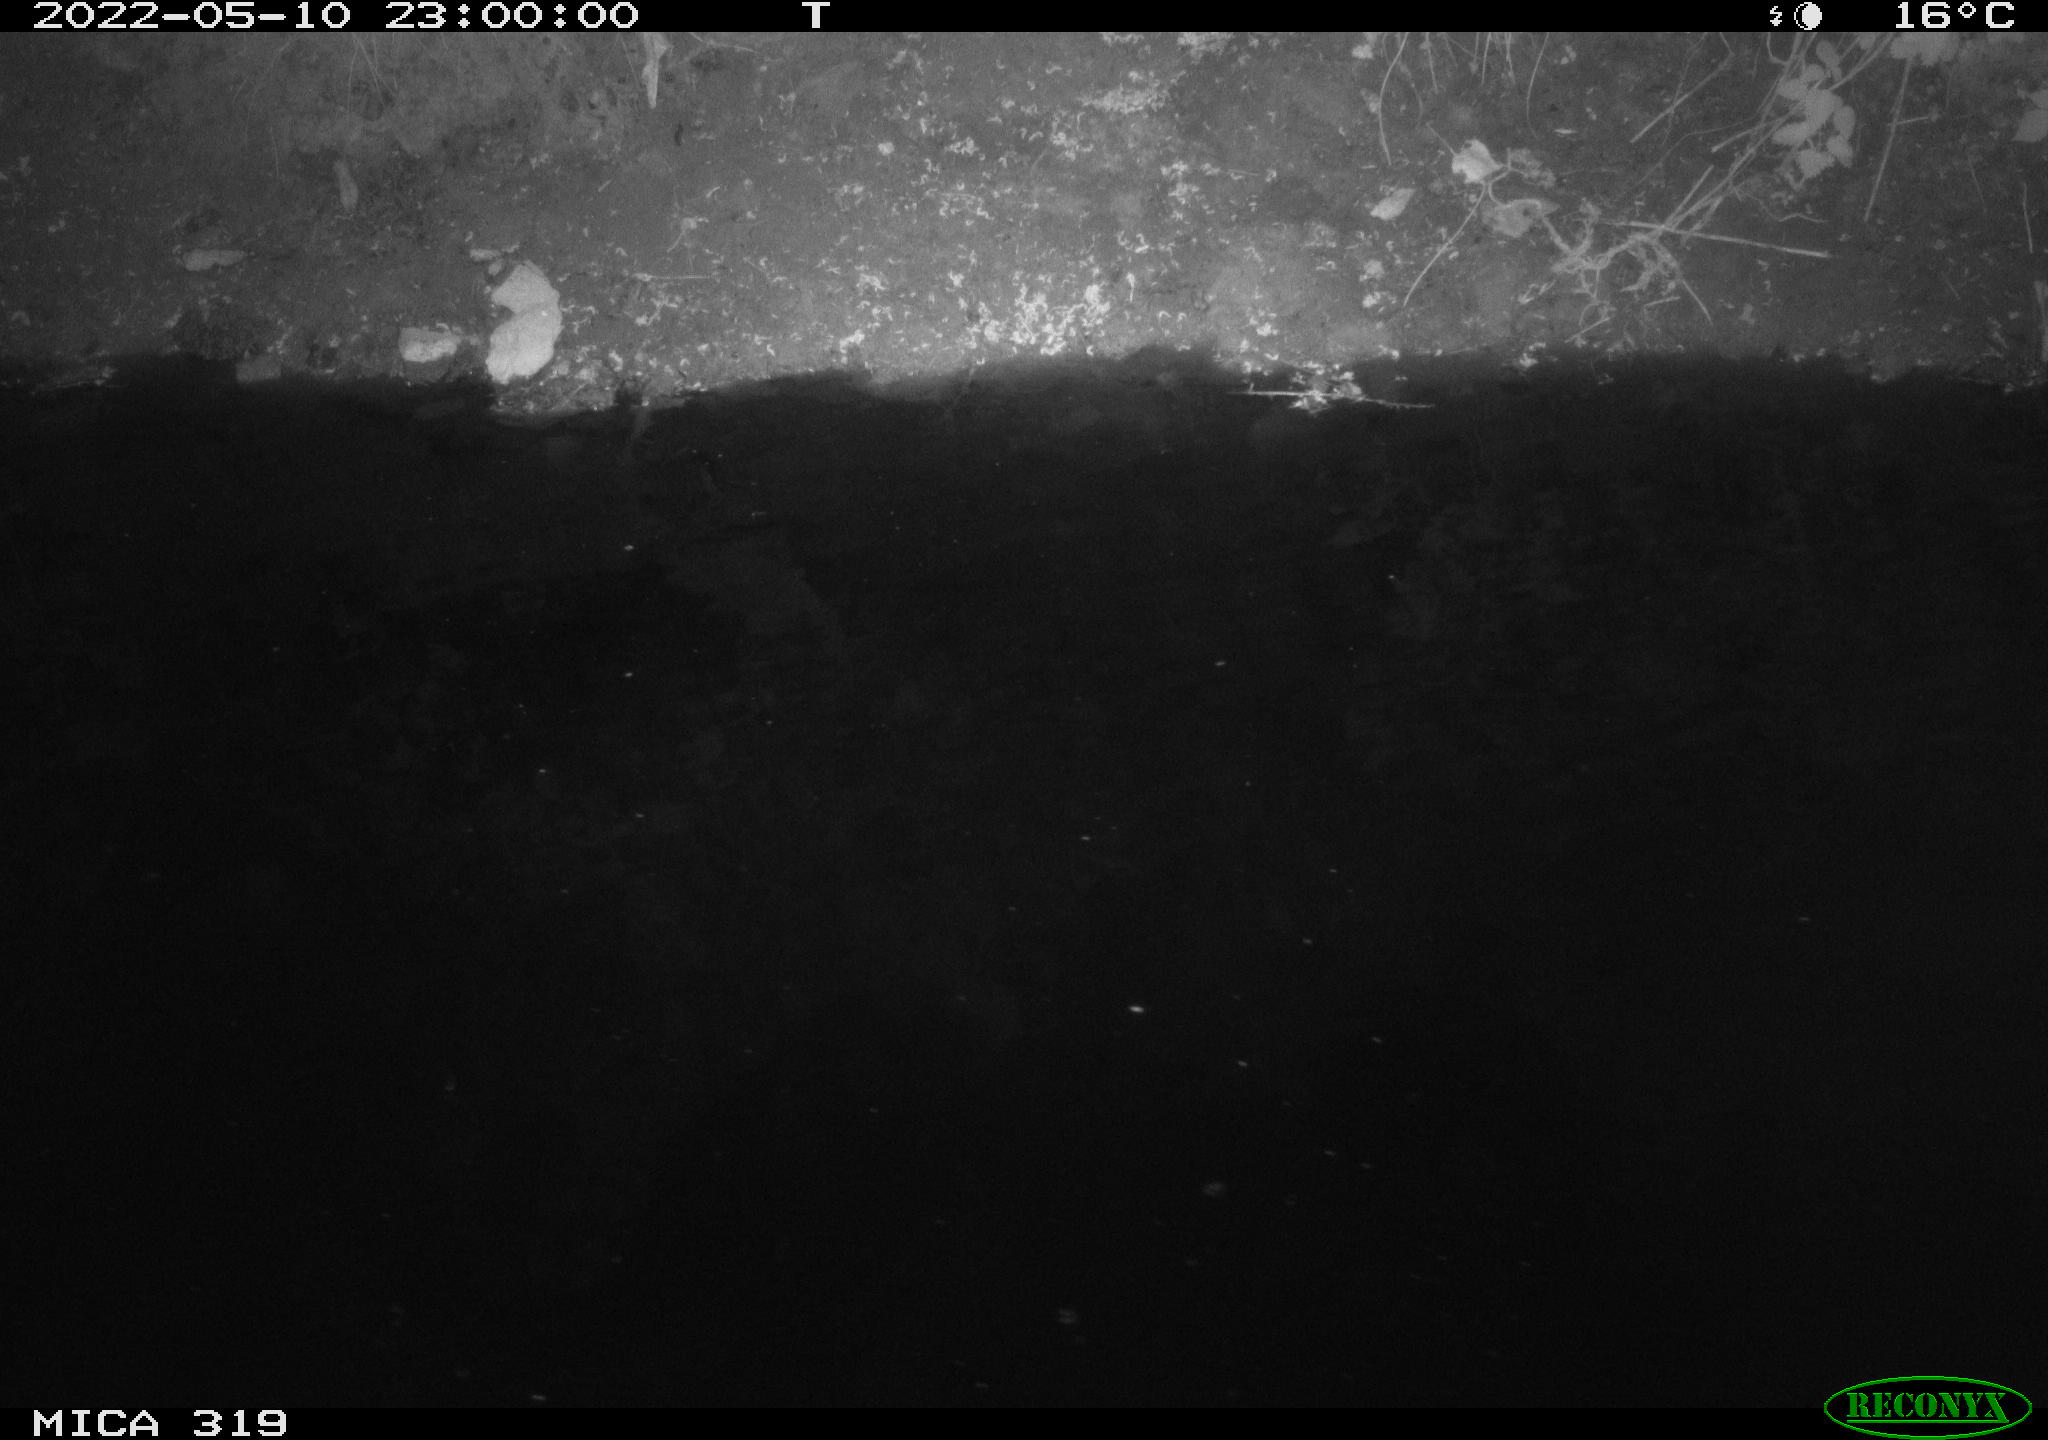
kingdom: Animalia
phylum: Chordata
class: Mammalia
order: Rodentia
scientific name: Rodentia
